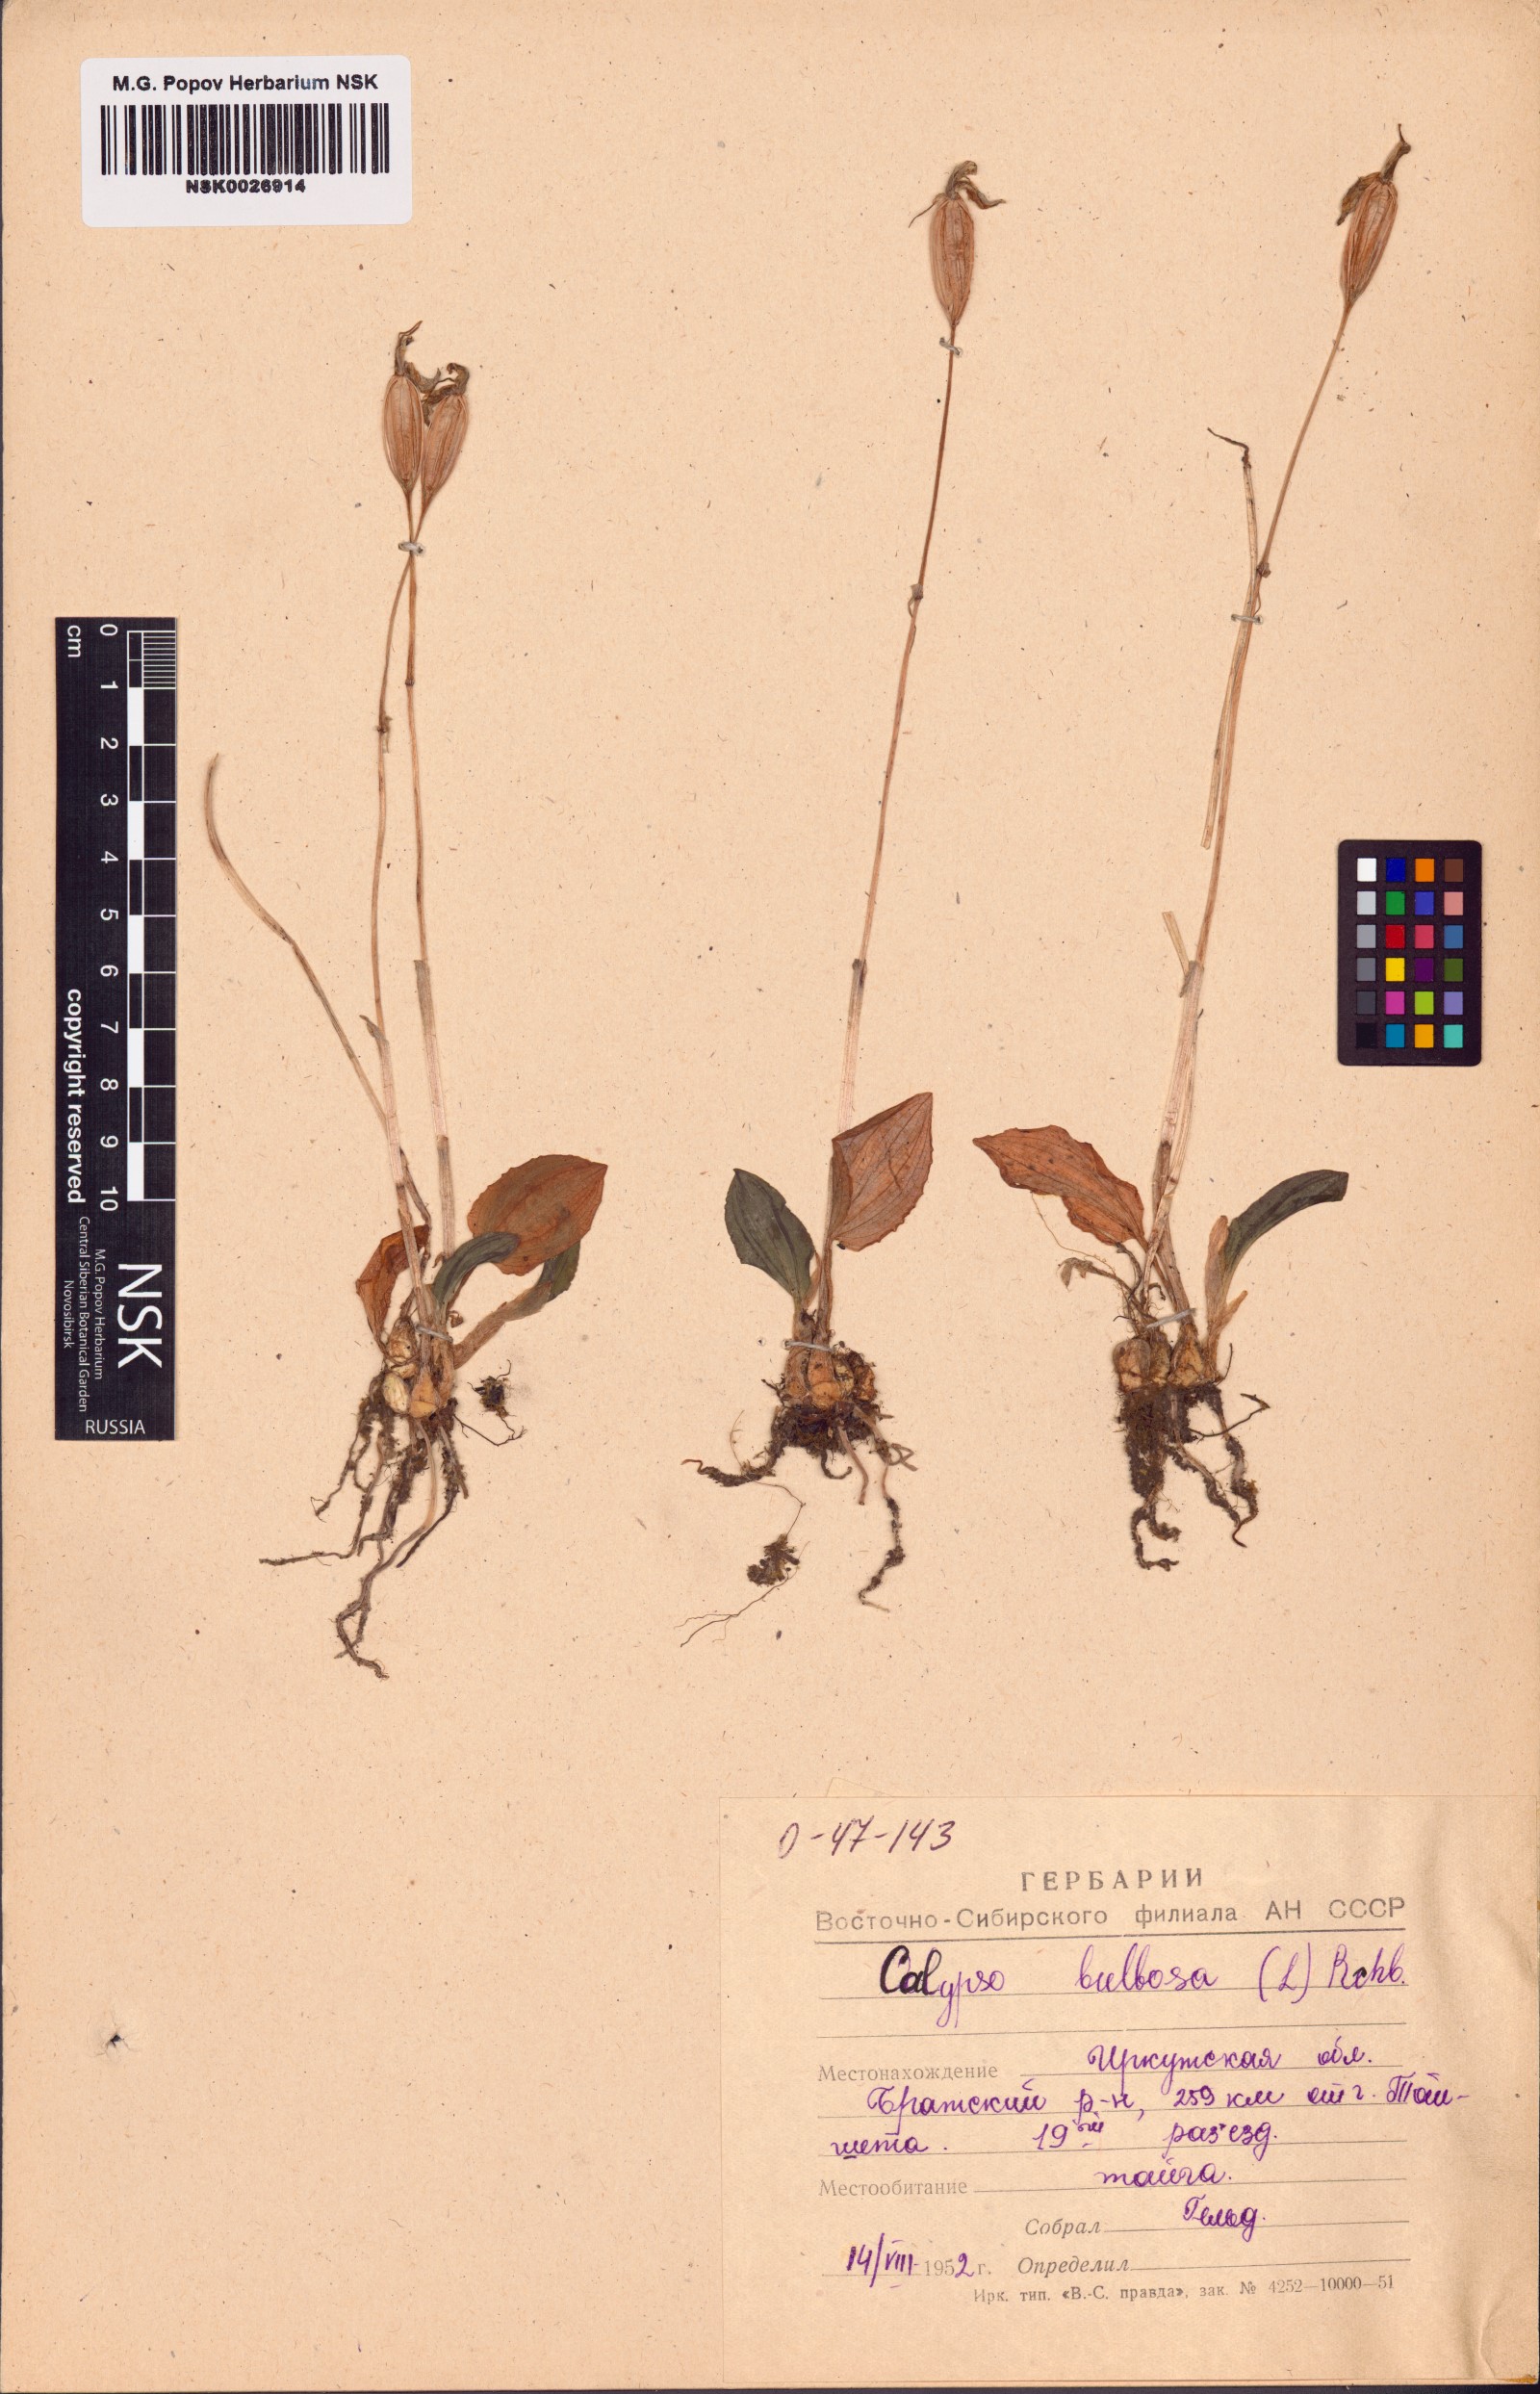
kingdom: Plantae
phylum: Tracheophyta
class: Liliopsida
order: Asparagales
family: Orchidaceae
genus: Calypso
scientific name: Calypso bulbosa
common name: Calypso
